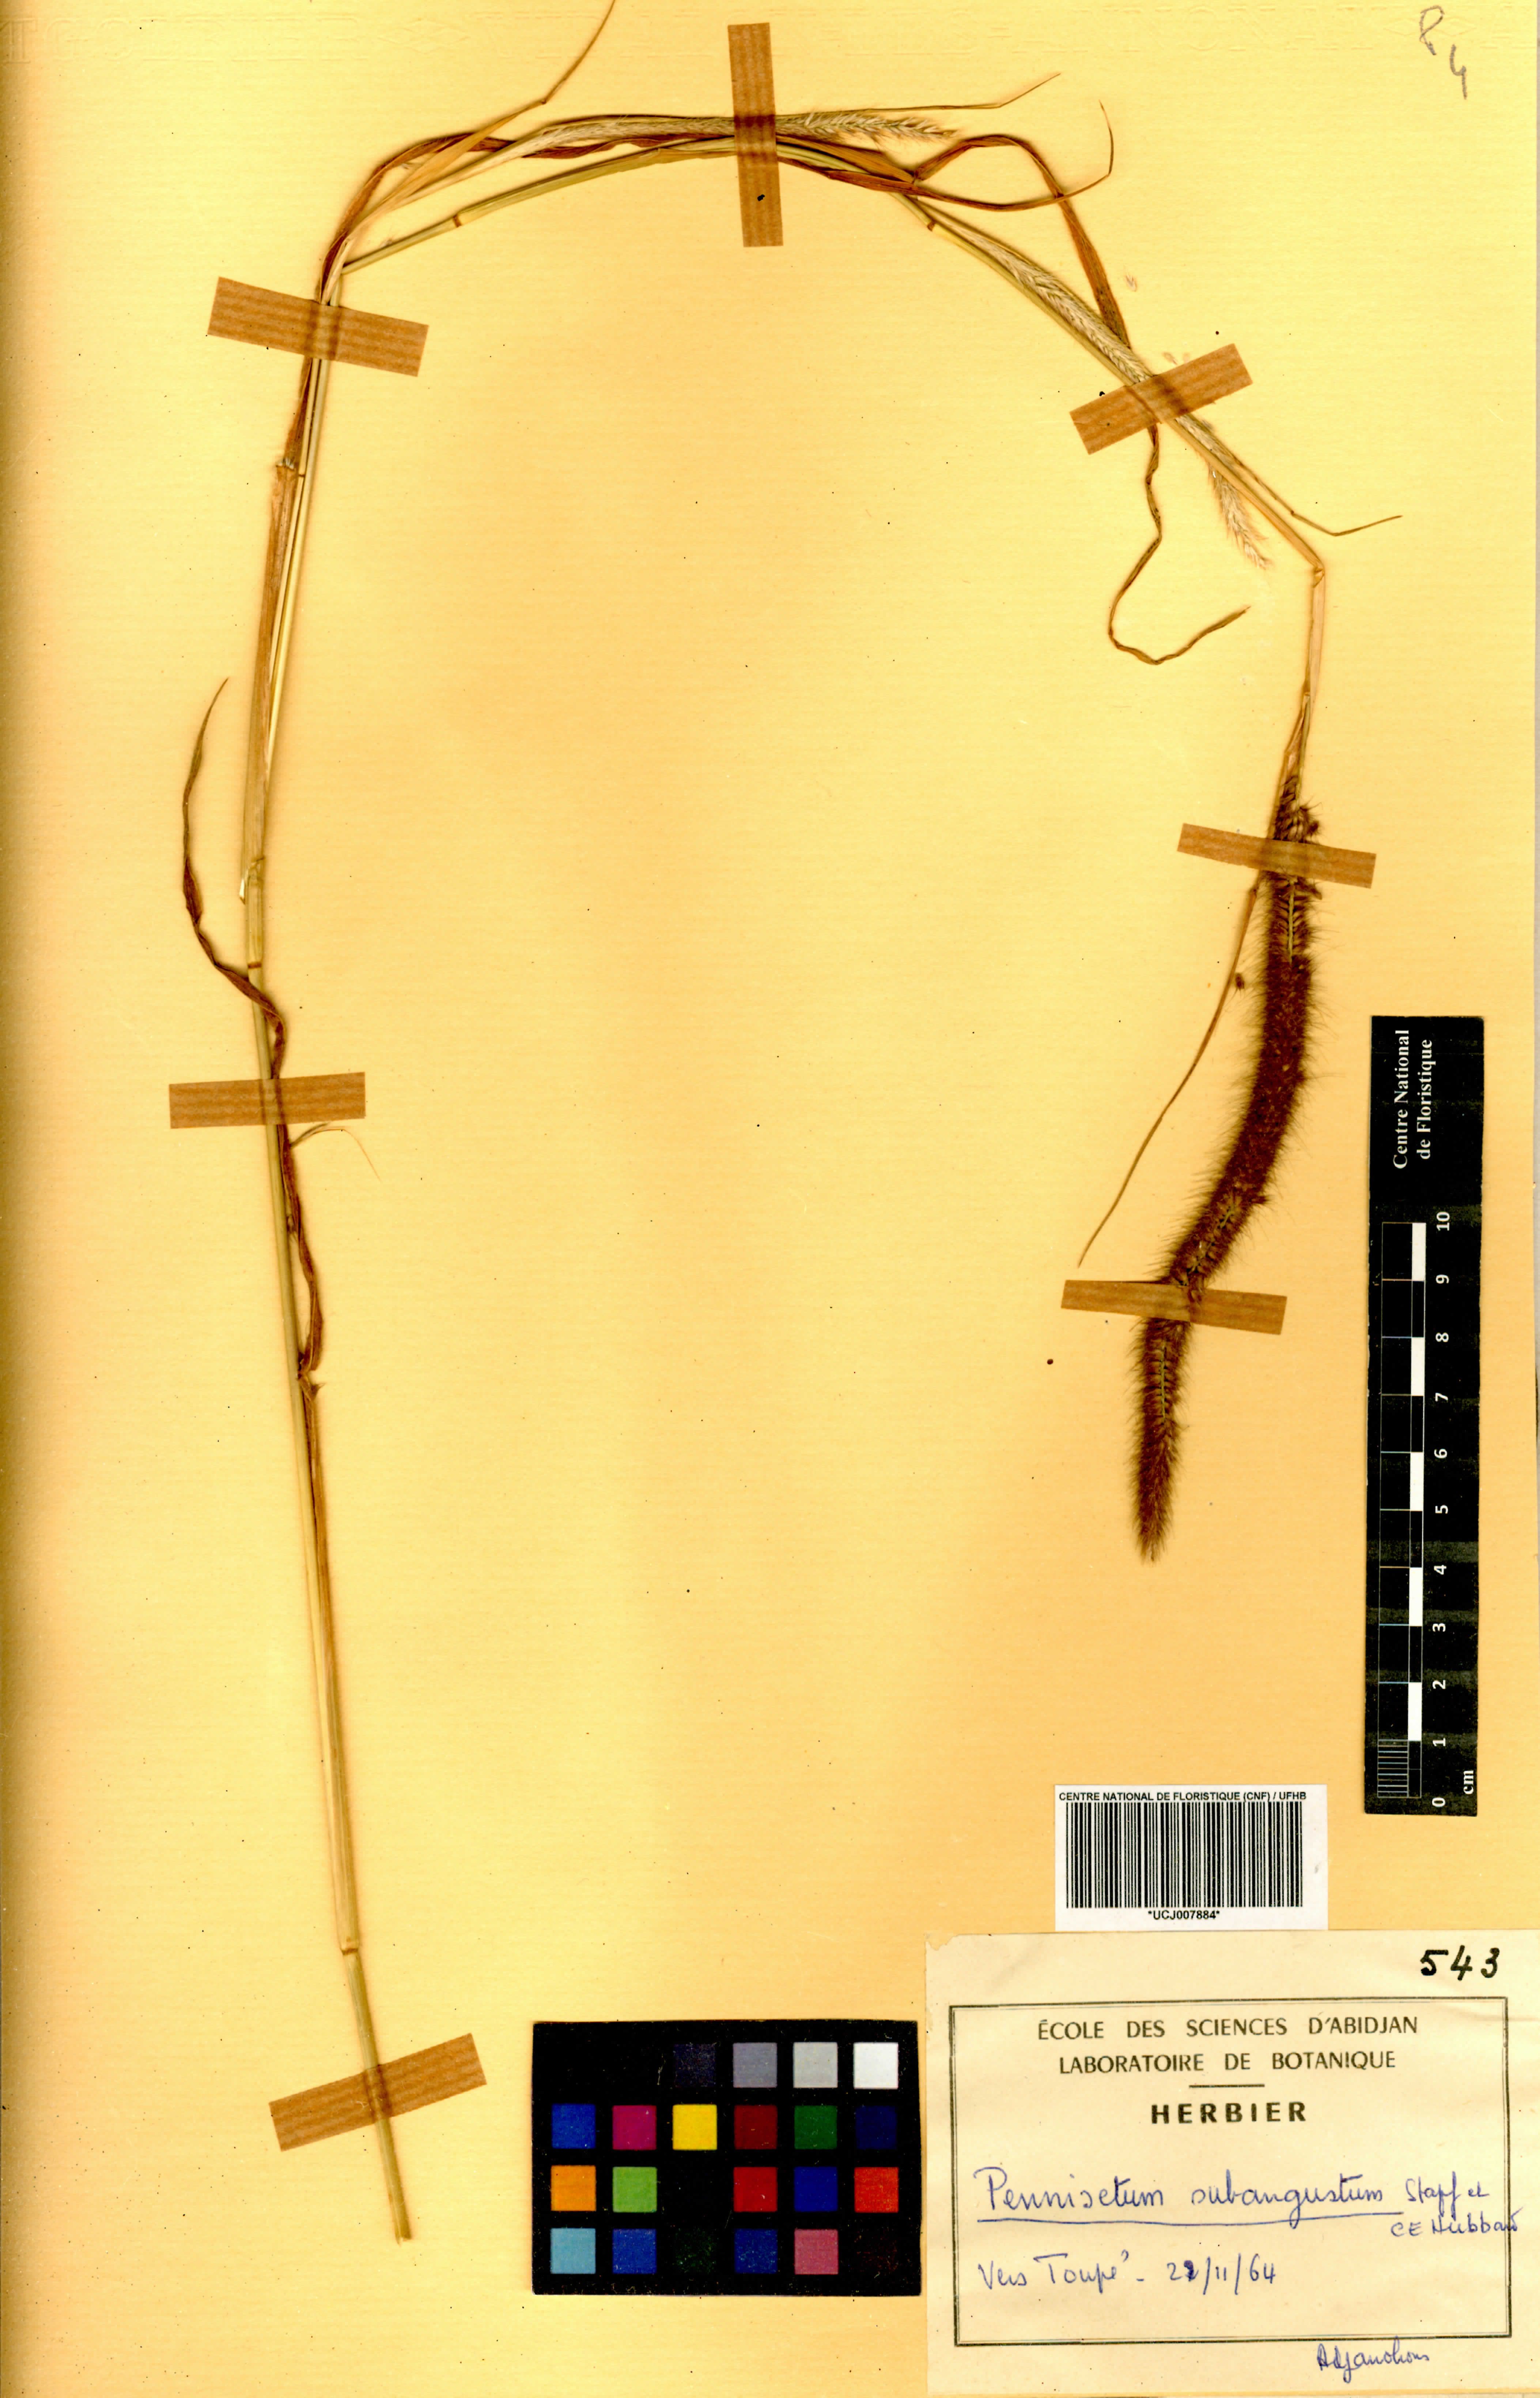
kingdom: Plantae
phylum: Tracheophyta
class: Liliopsida
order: Poales
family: Poaceae
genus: Cenchrus
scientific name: Cenchrus setosus
